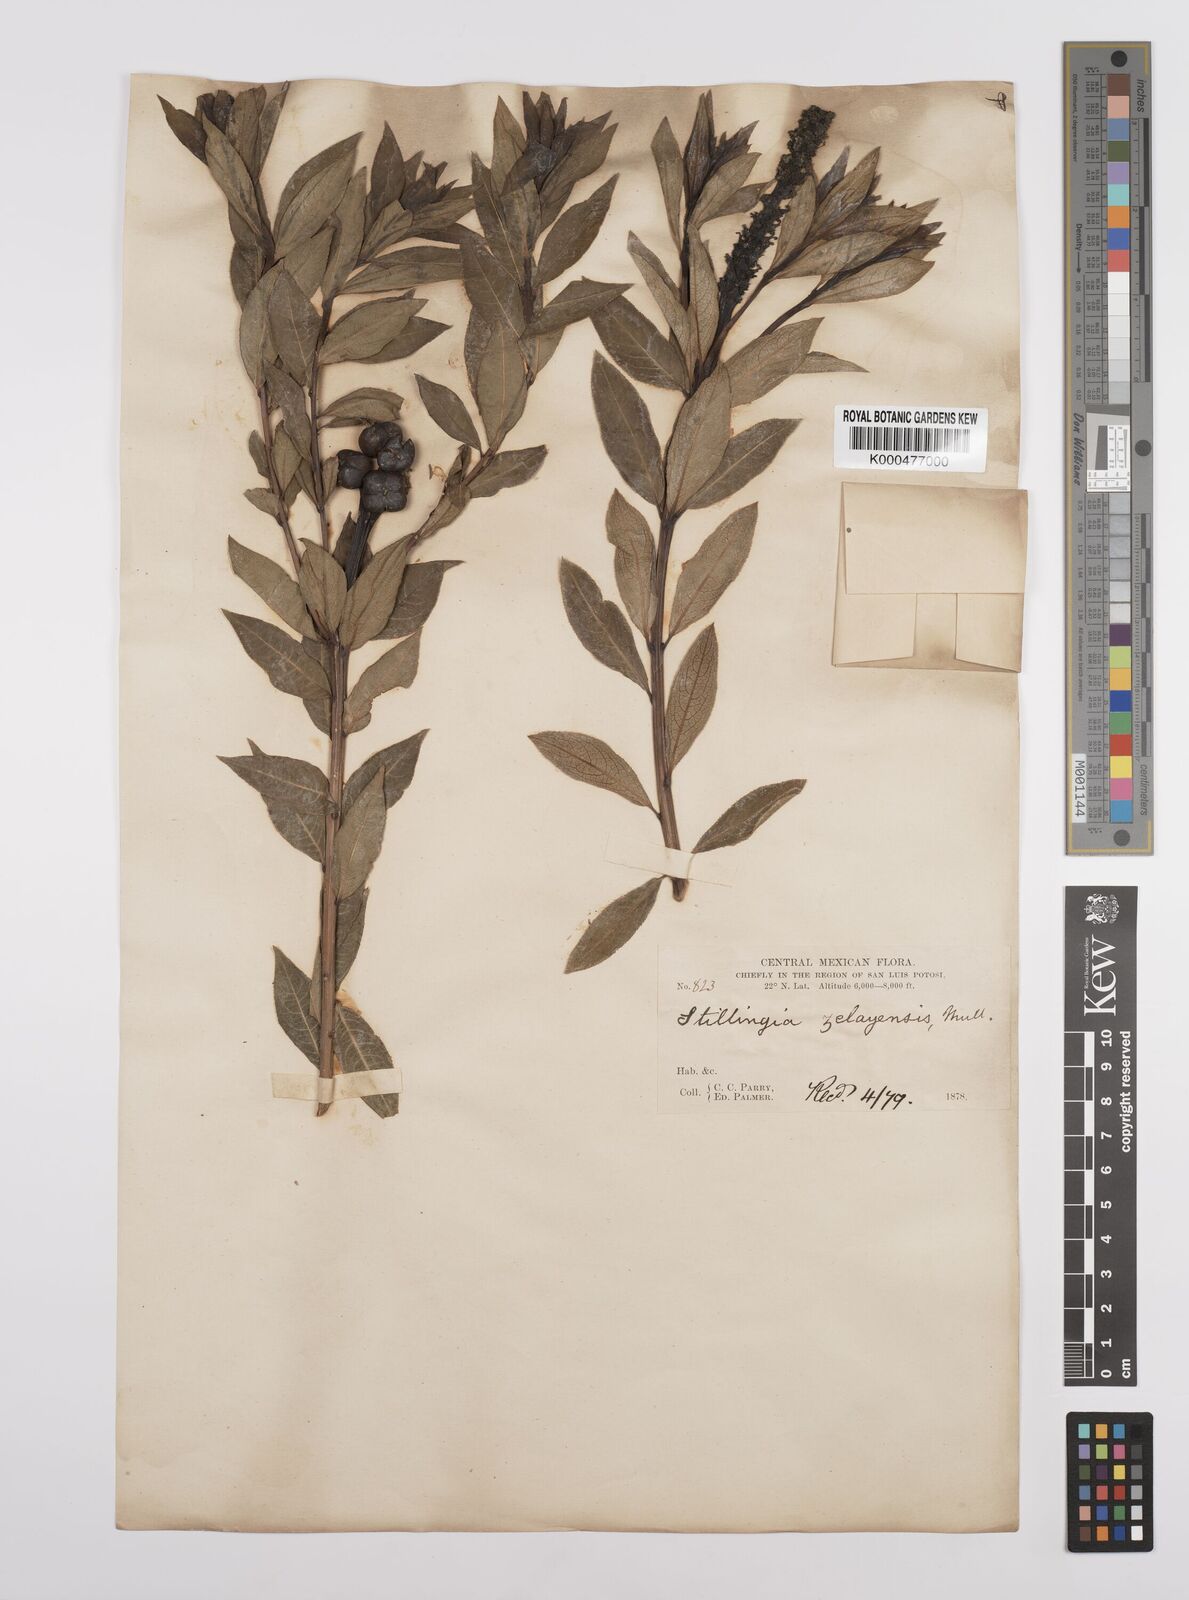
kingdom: Plantae
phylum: Tracheophyta
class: Magnoliopsida
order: Malpighiales
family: Euphorbiaceae
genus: Stillingia
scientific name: Stillingia
